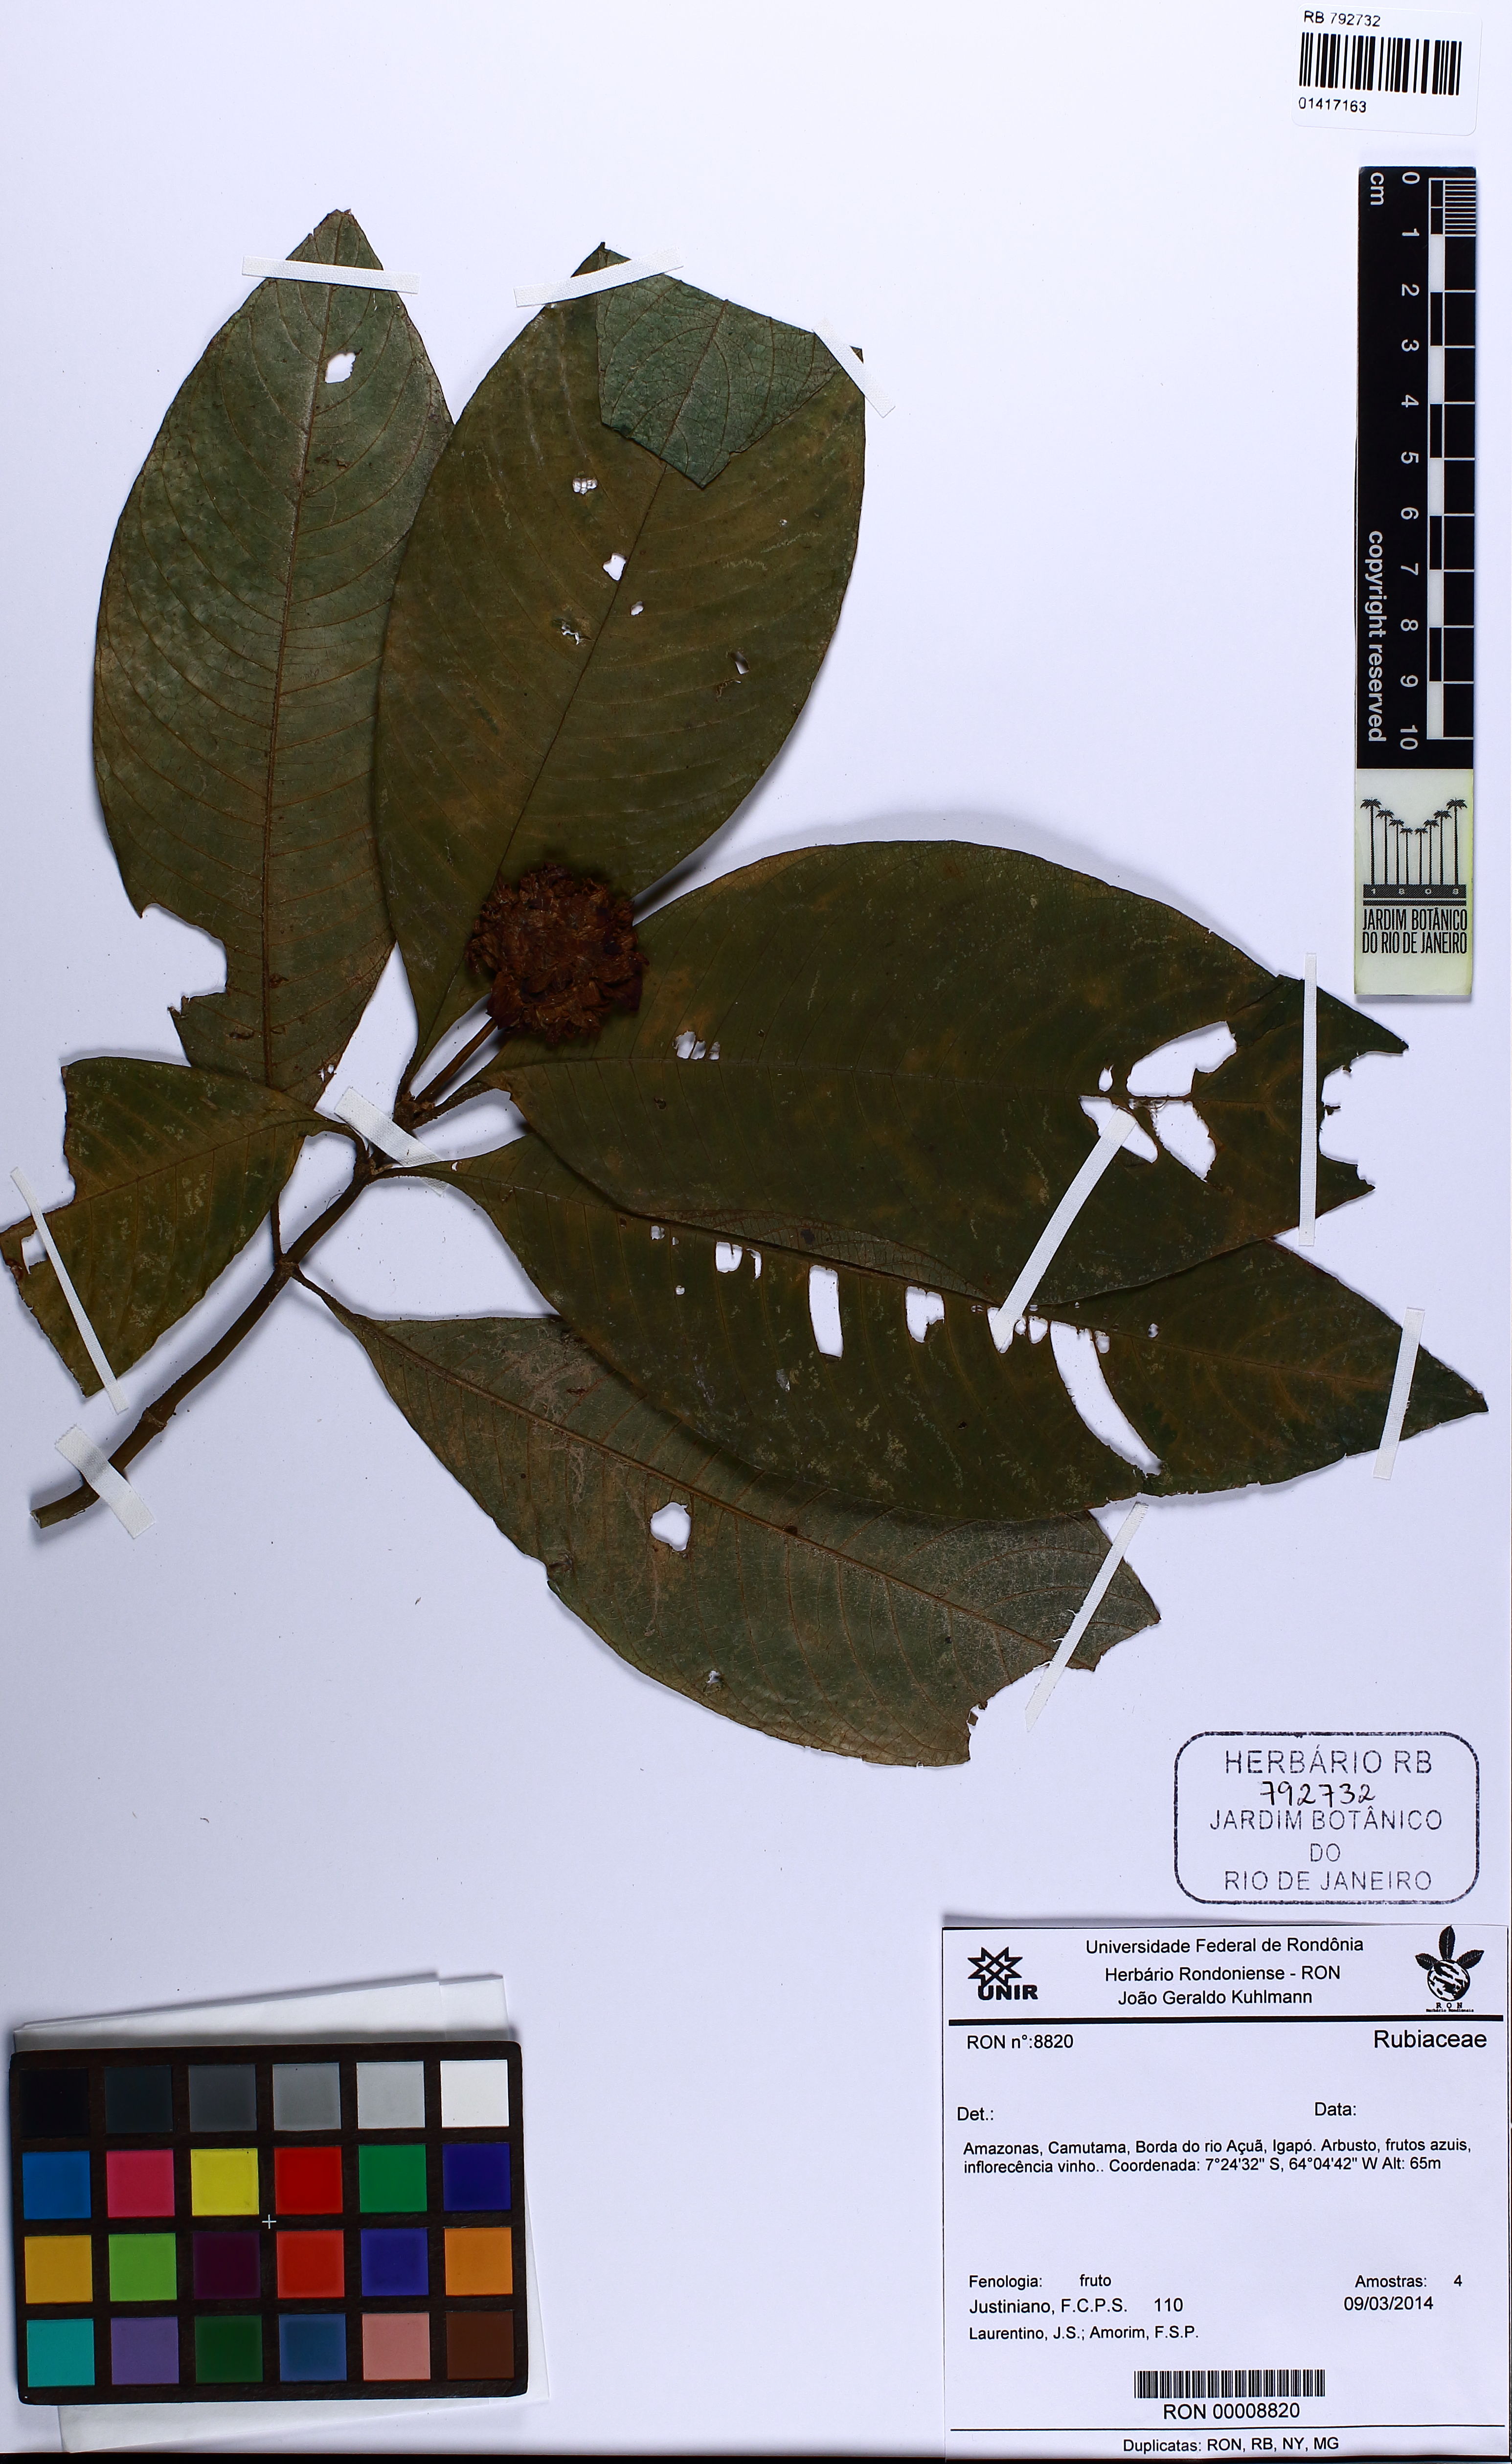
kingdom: Plantae
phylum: Tracheophyta
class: Magnoliopsida
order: Gentianales
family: Rubiaceae
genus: Palicourea
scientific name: Palicourea colorata
